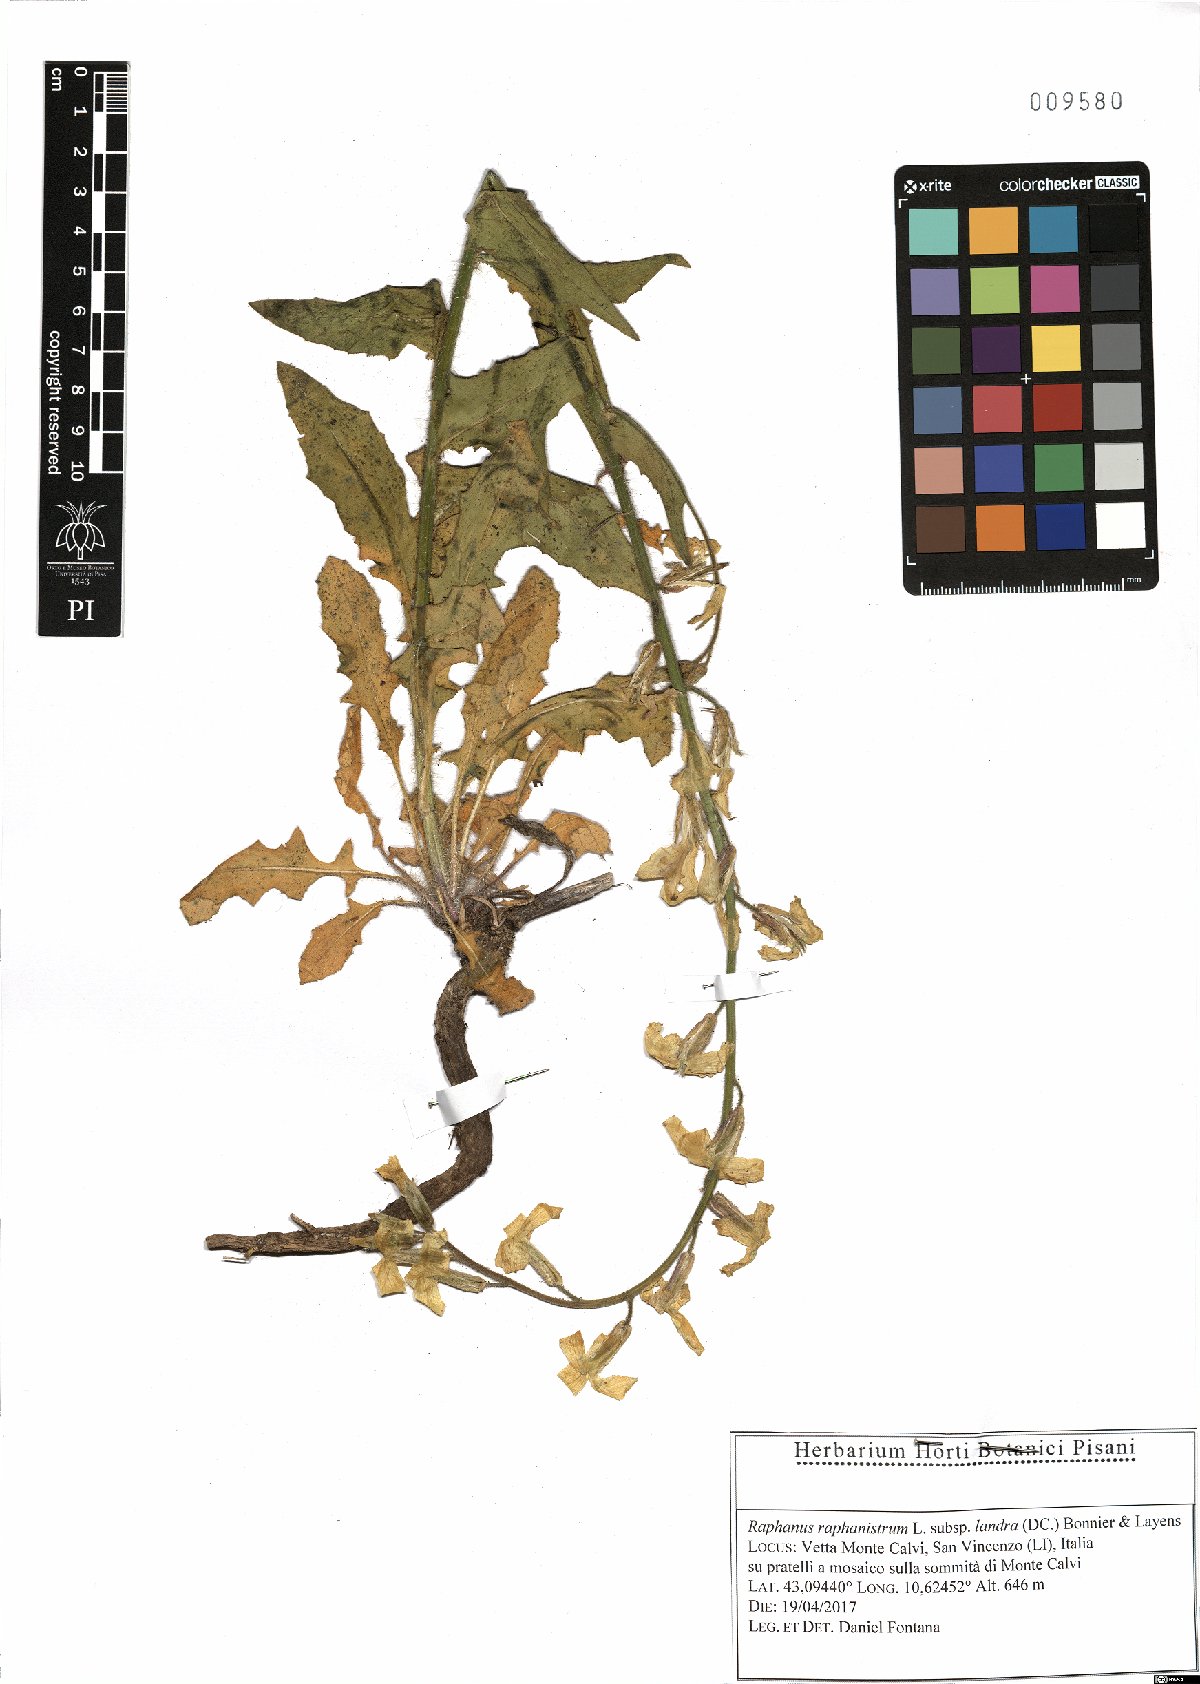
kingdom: Plantae
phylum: Tracheophyta
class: Magnoliopsida
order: Brassicales
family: Brassicaceae
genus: Raphanus
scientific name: Raphanus raphanistrum
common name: Wild radish
